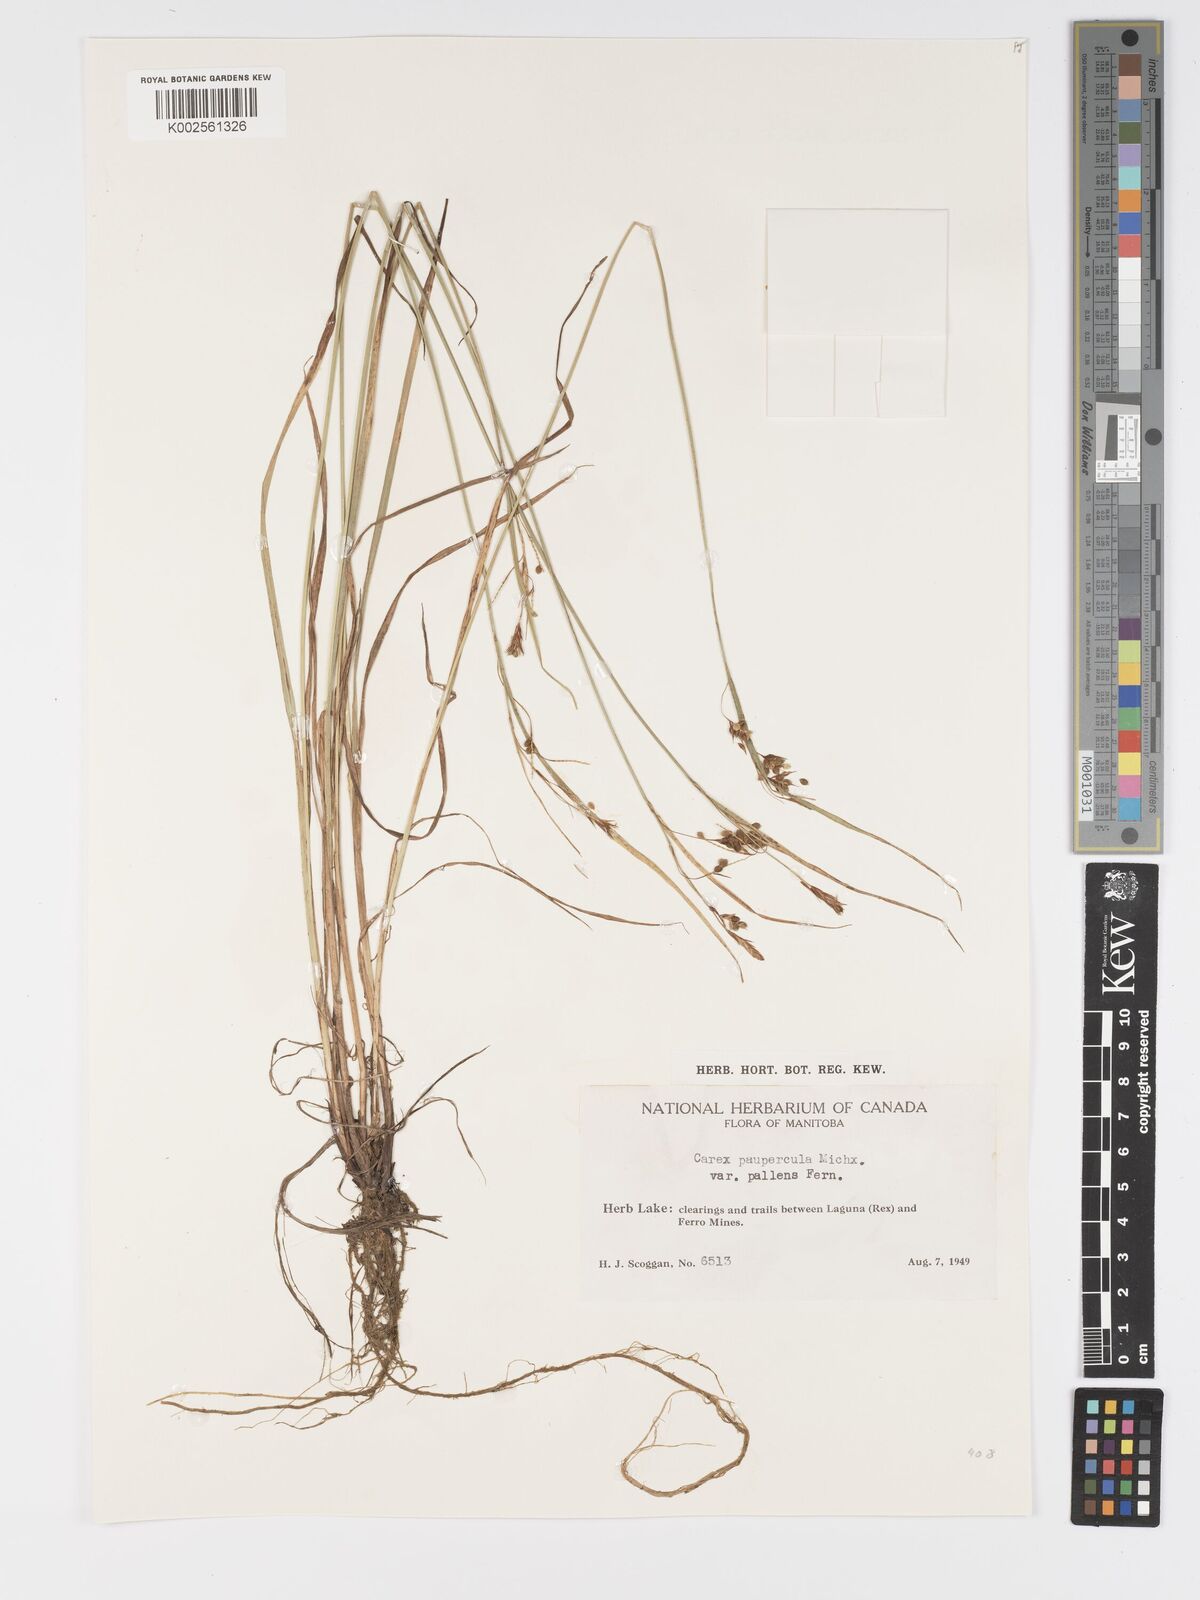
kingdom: Plantae
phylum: Tracheophyta
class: Liliopsida
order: Poales
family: Cyperaceae
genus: Carex
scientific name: Carex magellanica
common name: Bog sedge
